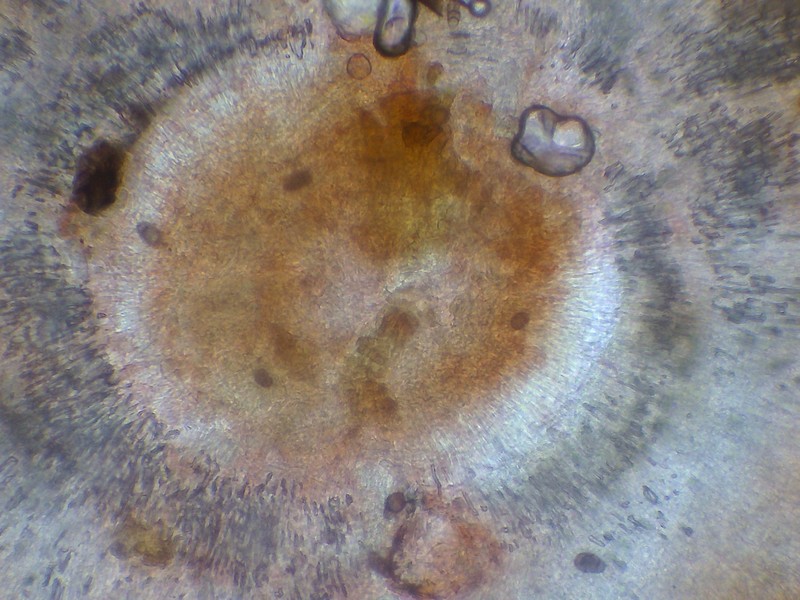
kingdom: Fungi
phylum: Ascomycota
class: Leotiomycetes
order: Helotiales
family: Helotiaceae
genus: Trichotheca
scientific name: Trichotheca alba
